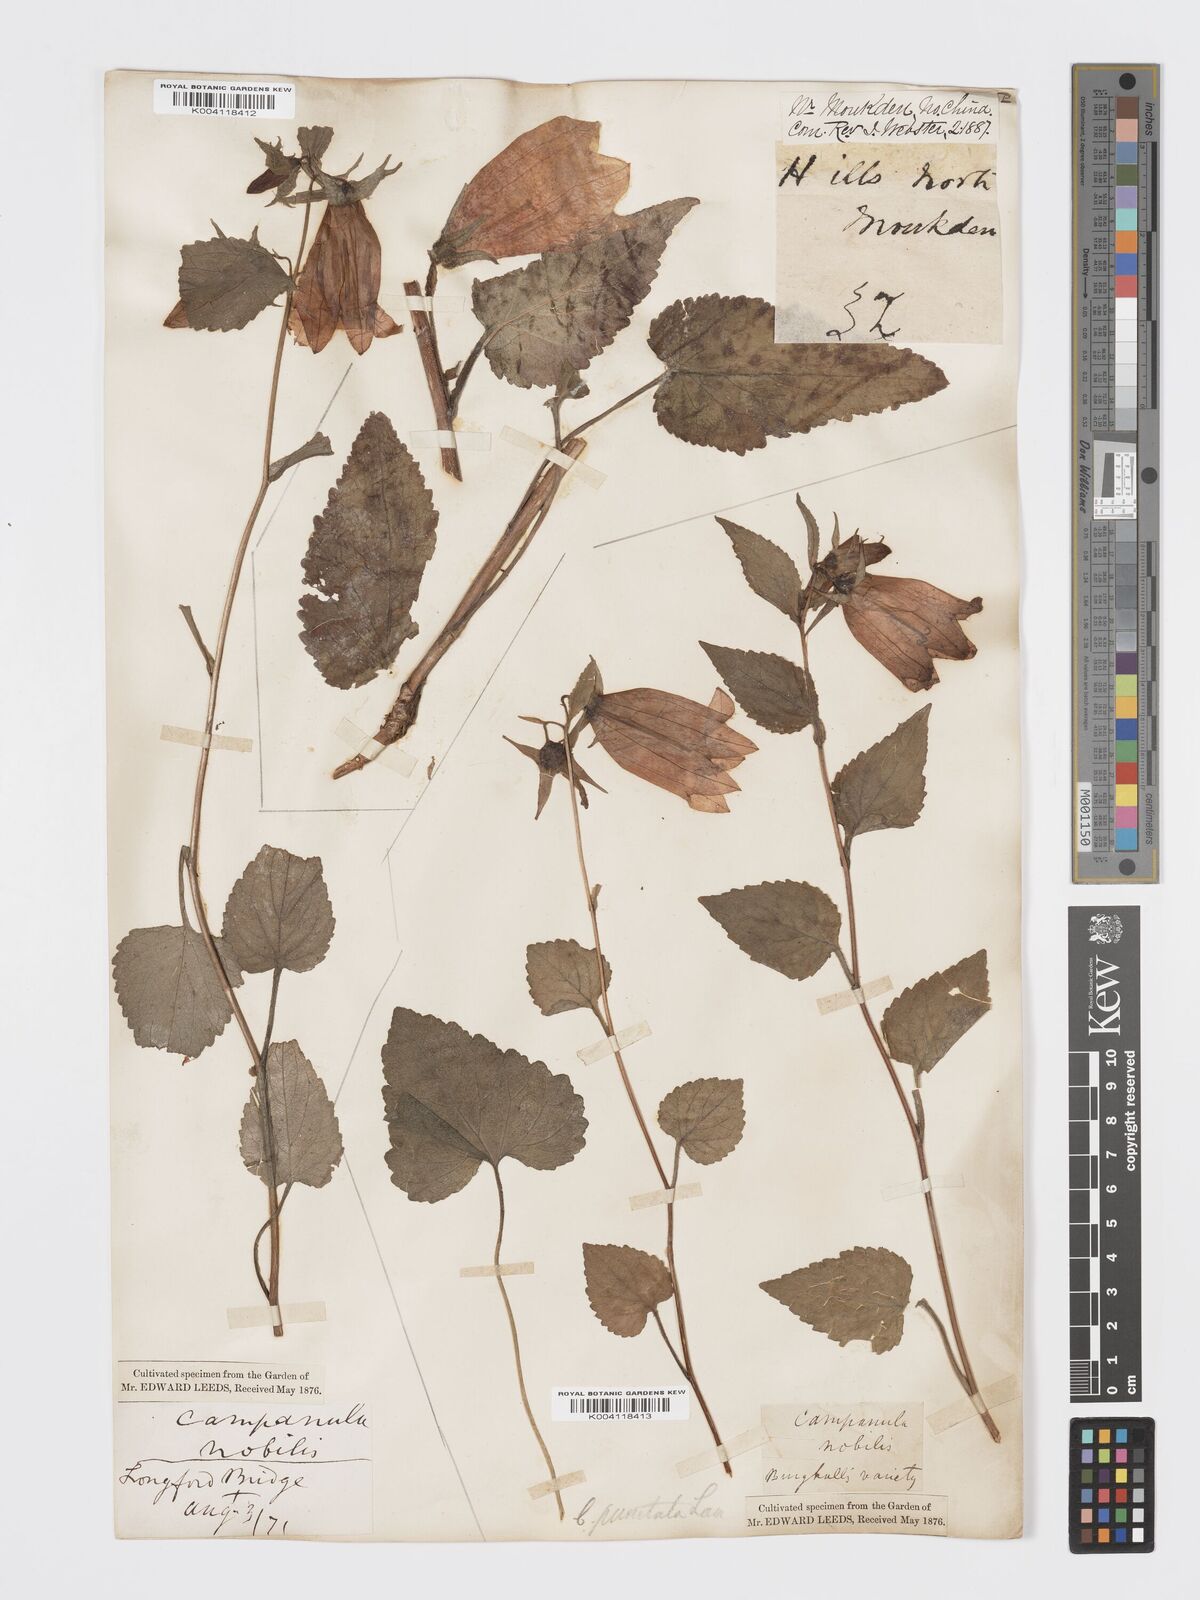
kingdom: Plantae
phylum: Tracheophyta
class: Magnoliopsida
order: Asterales
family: Campanulaceae
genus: Campanula
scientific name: Campanula
